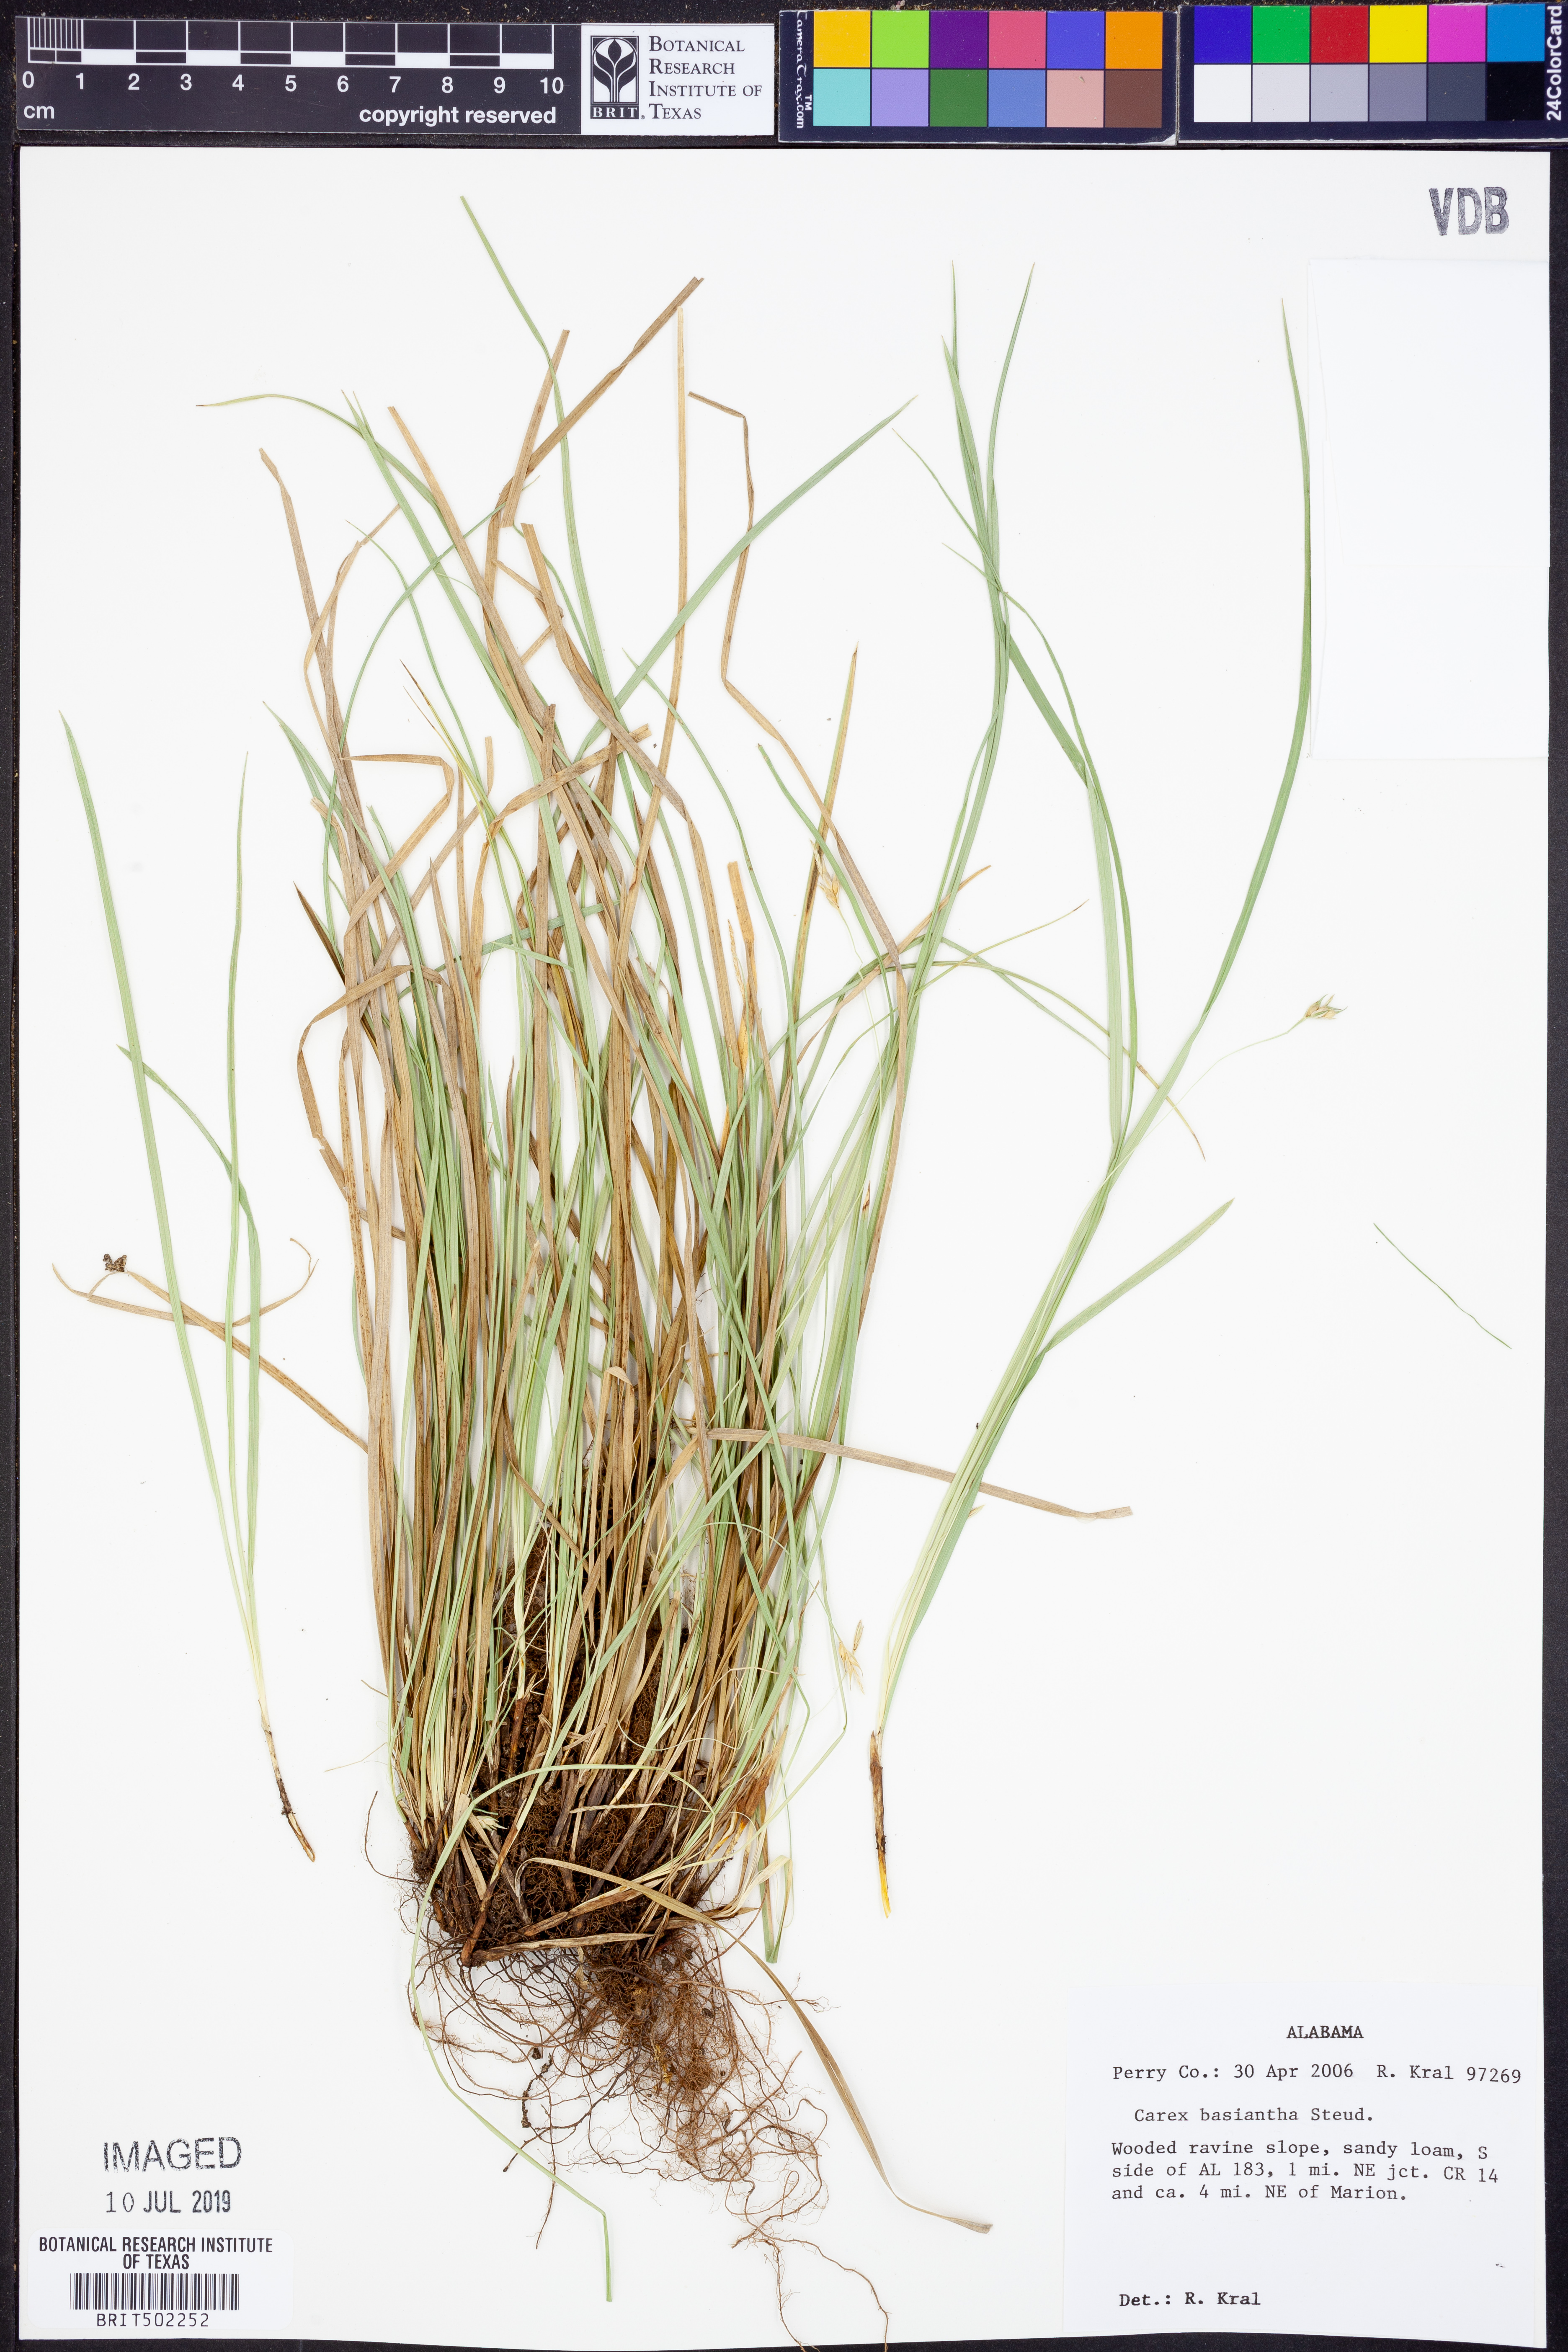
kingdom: Plantae
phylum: Tracheophyta
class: Liliopsida
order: Poales
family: Cyperaceae
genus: Carex
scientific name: Carex basiantha
